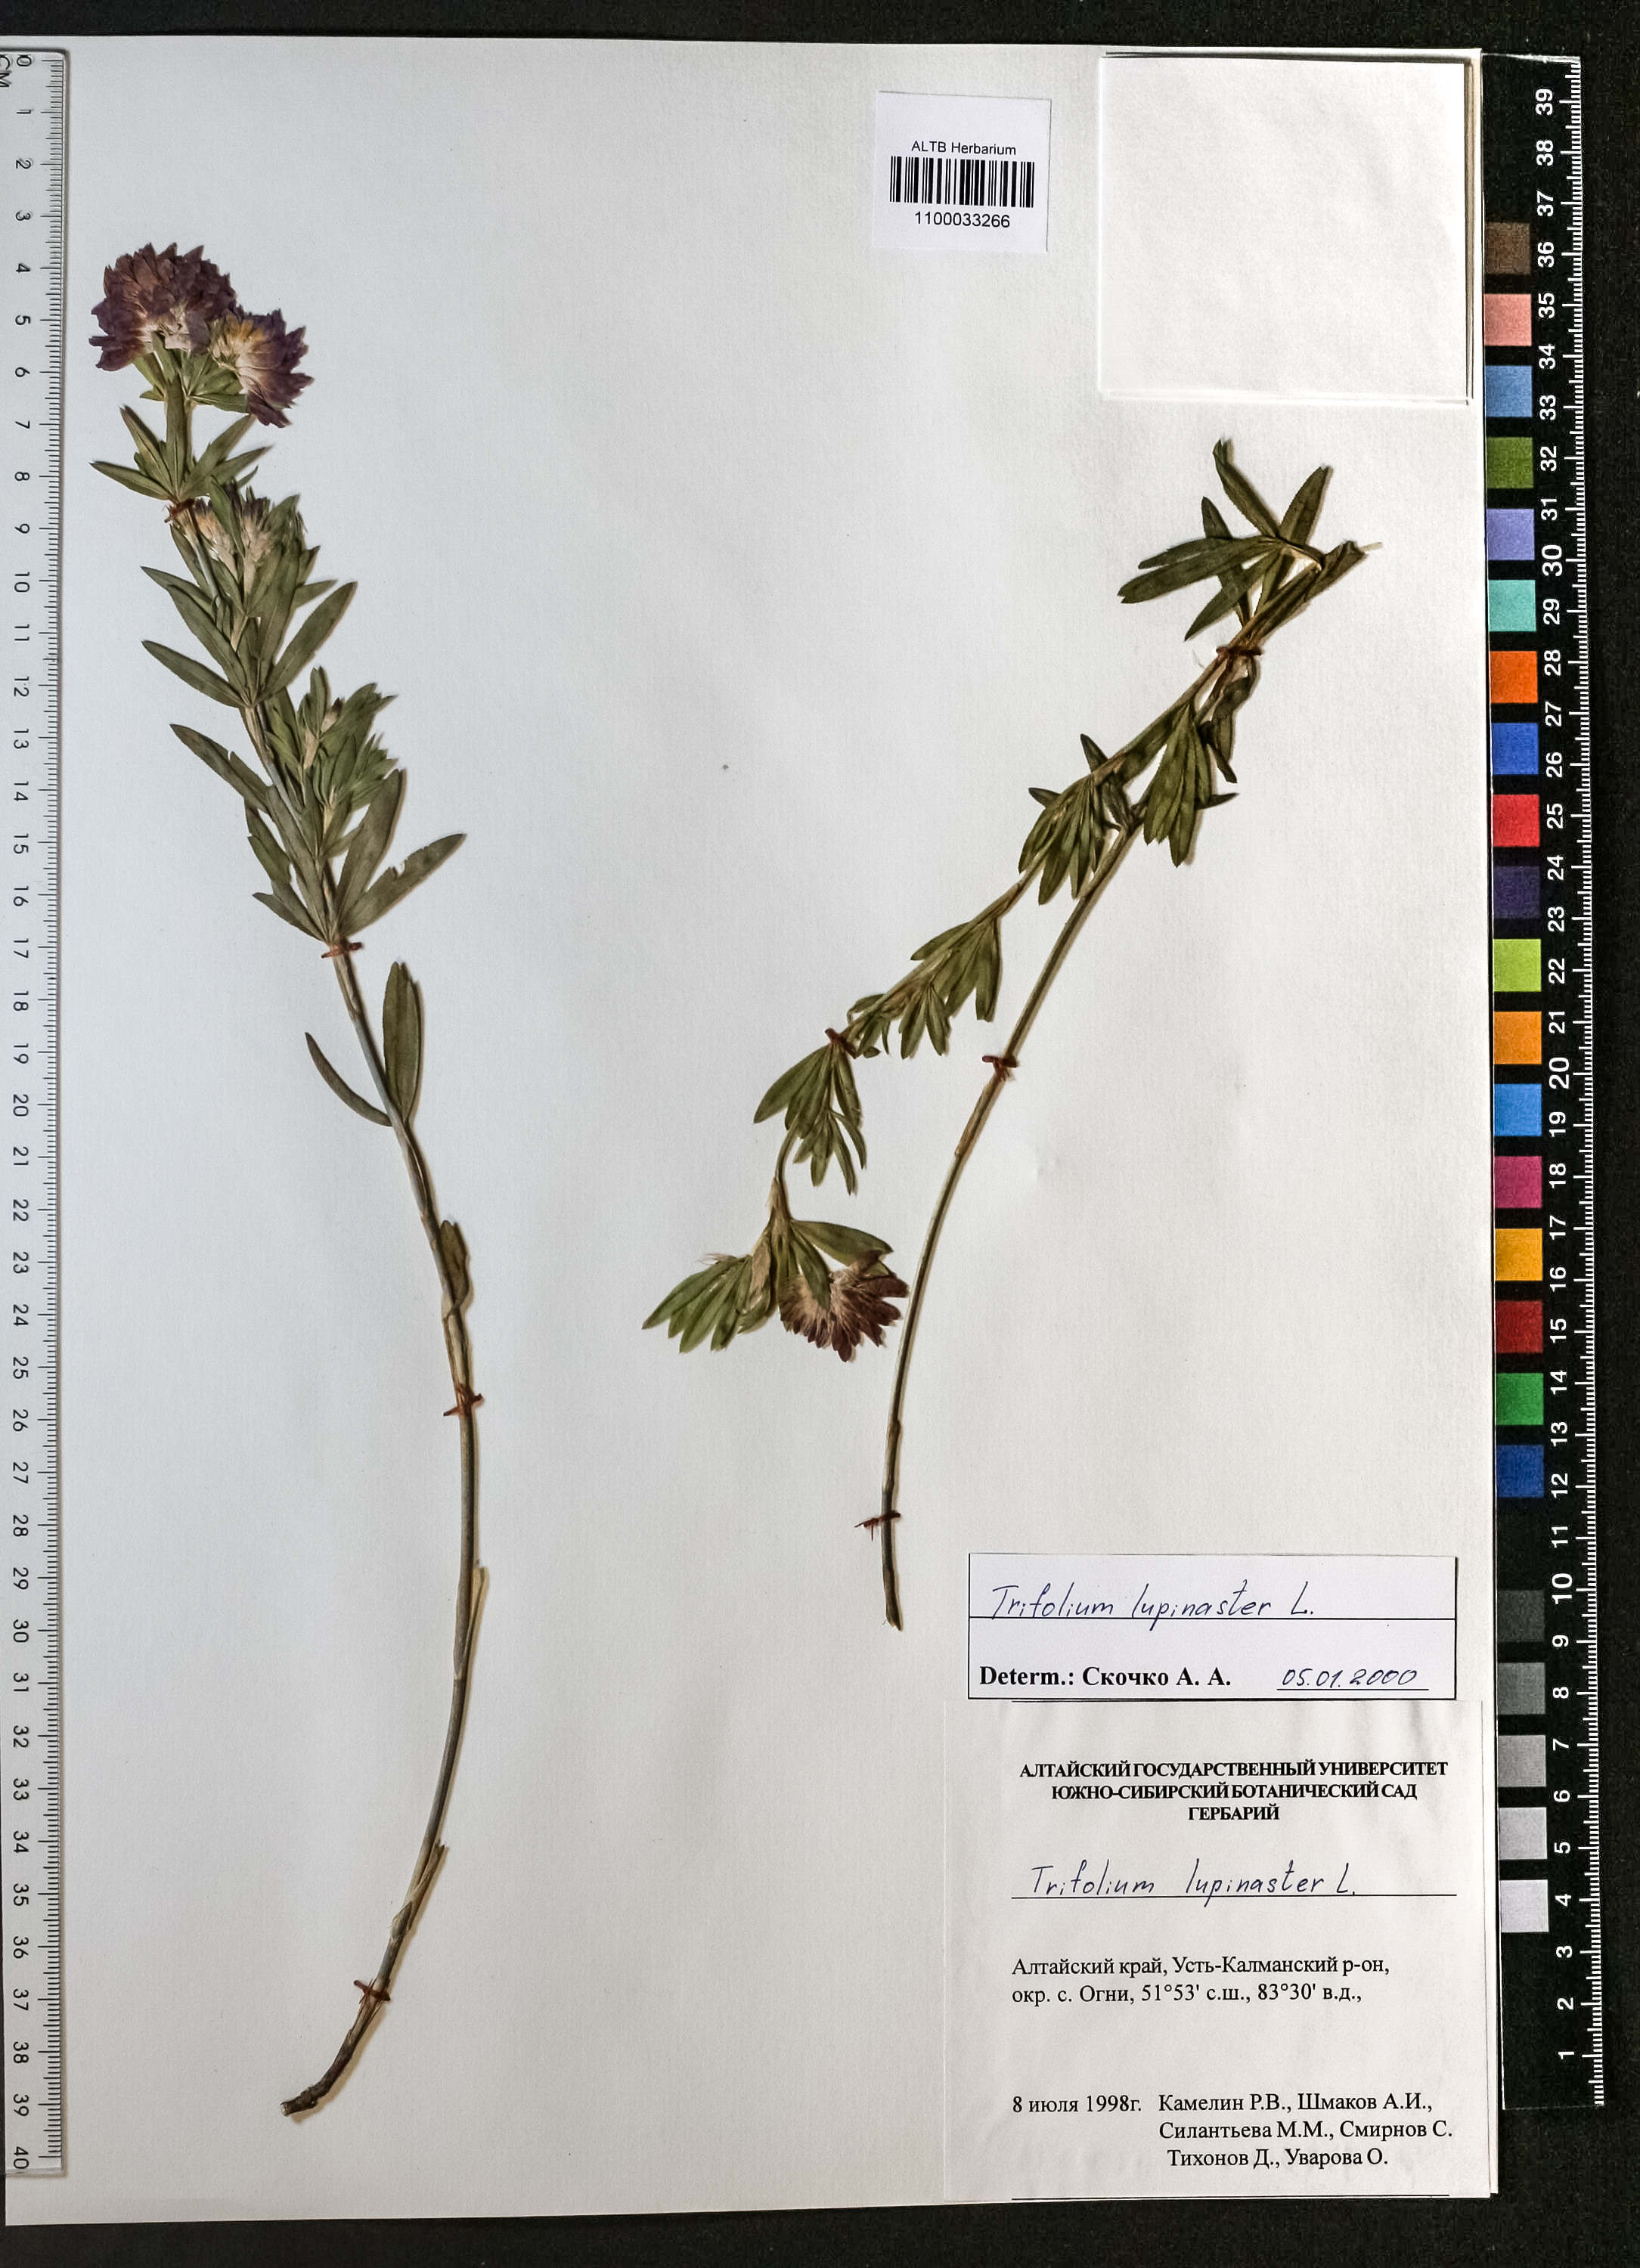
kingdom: Plantae
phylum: Tracheophyta
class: Magnoliopsida
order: Fabales
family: Fabaceae
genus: Trifolium
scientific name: Trifolium lupinaster
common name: Lupine clover
